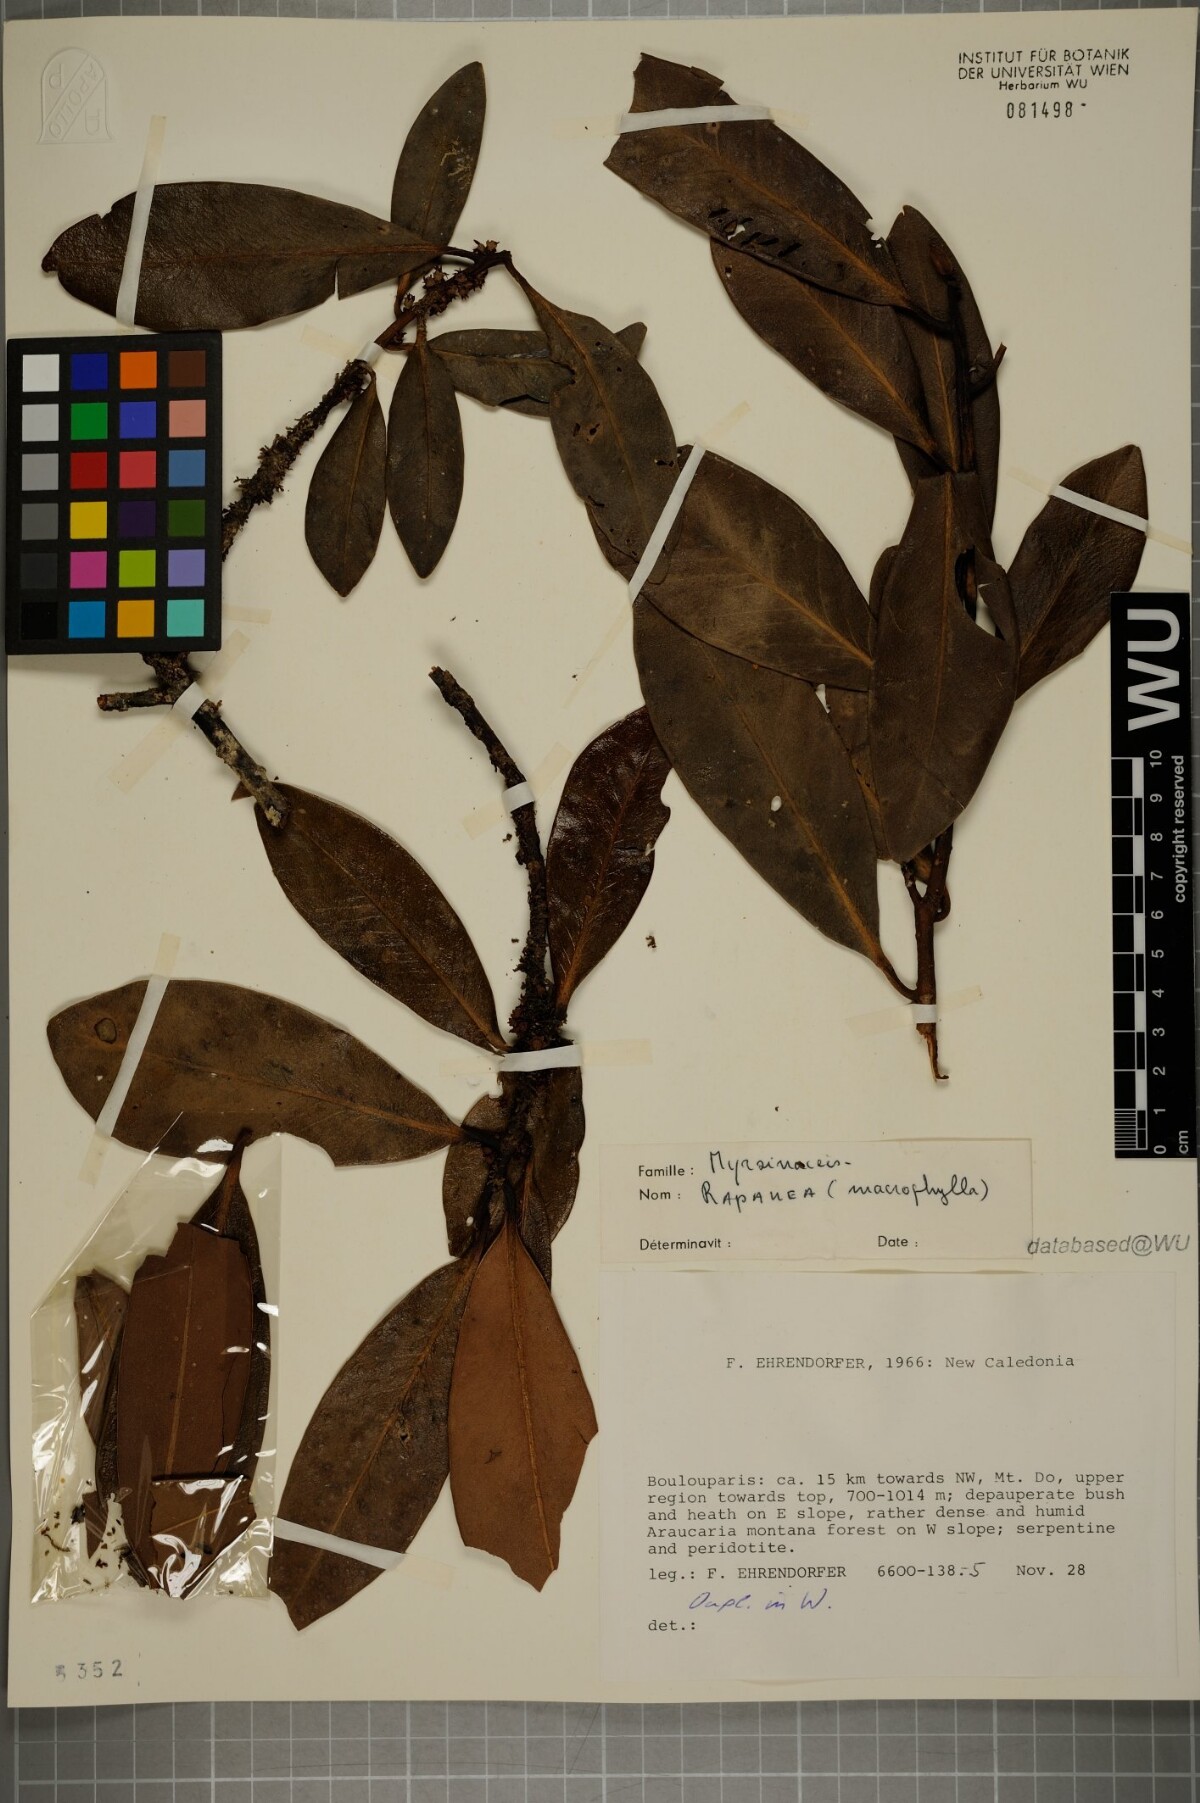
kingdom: Plantae
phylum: Tracheophyta
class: Magnoliopsida
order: Ericales
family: Primulaceae
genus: Myrsine
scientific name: Myrsine macrophylla
